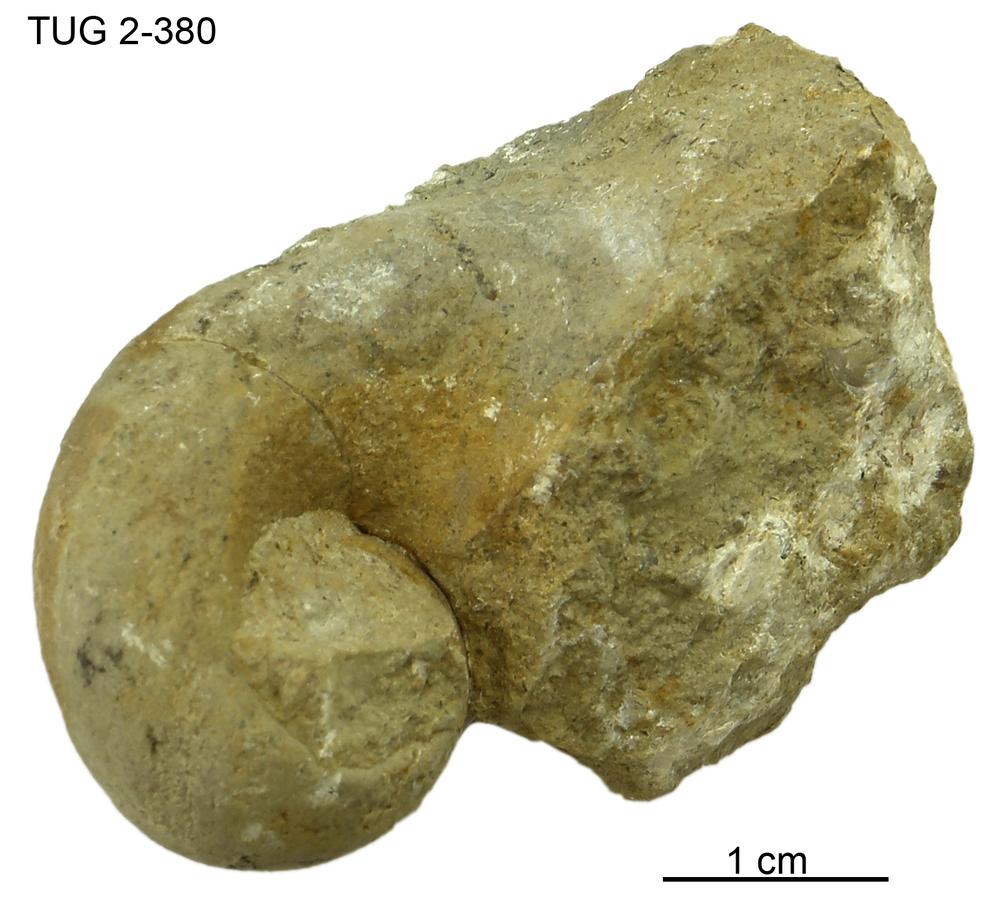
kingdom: Animalia
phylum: Mollusca
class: Gastropoda
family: Bellerophontidae
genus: Bellerophon
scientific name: Bellerophon compressus
